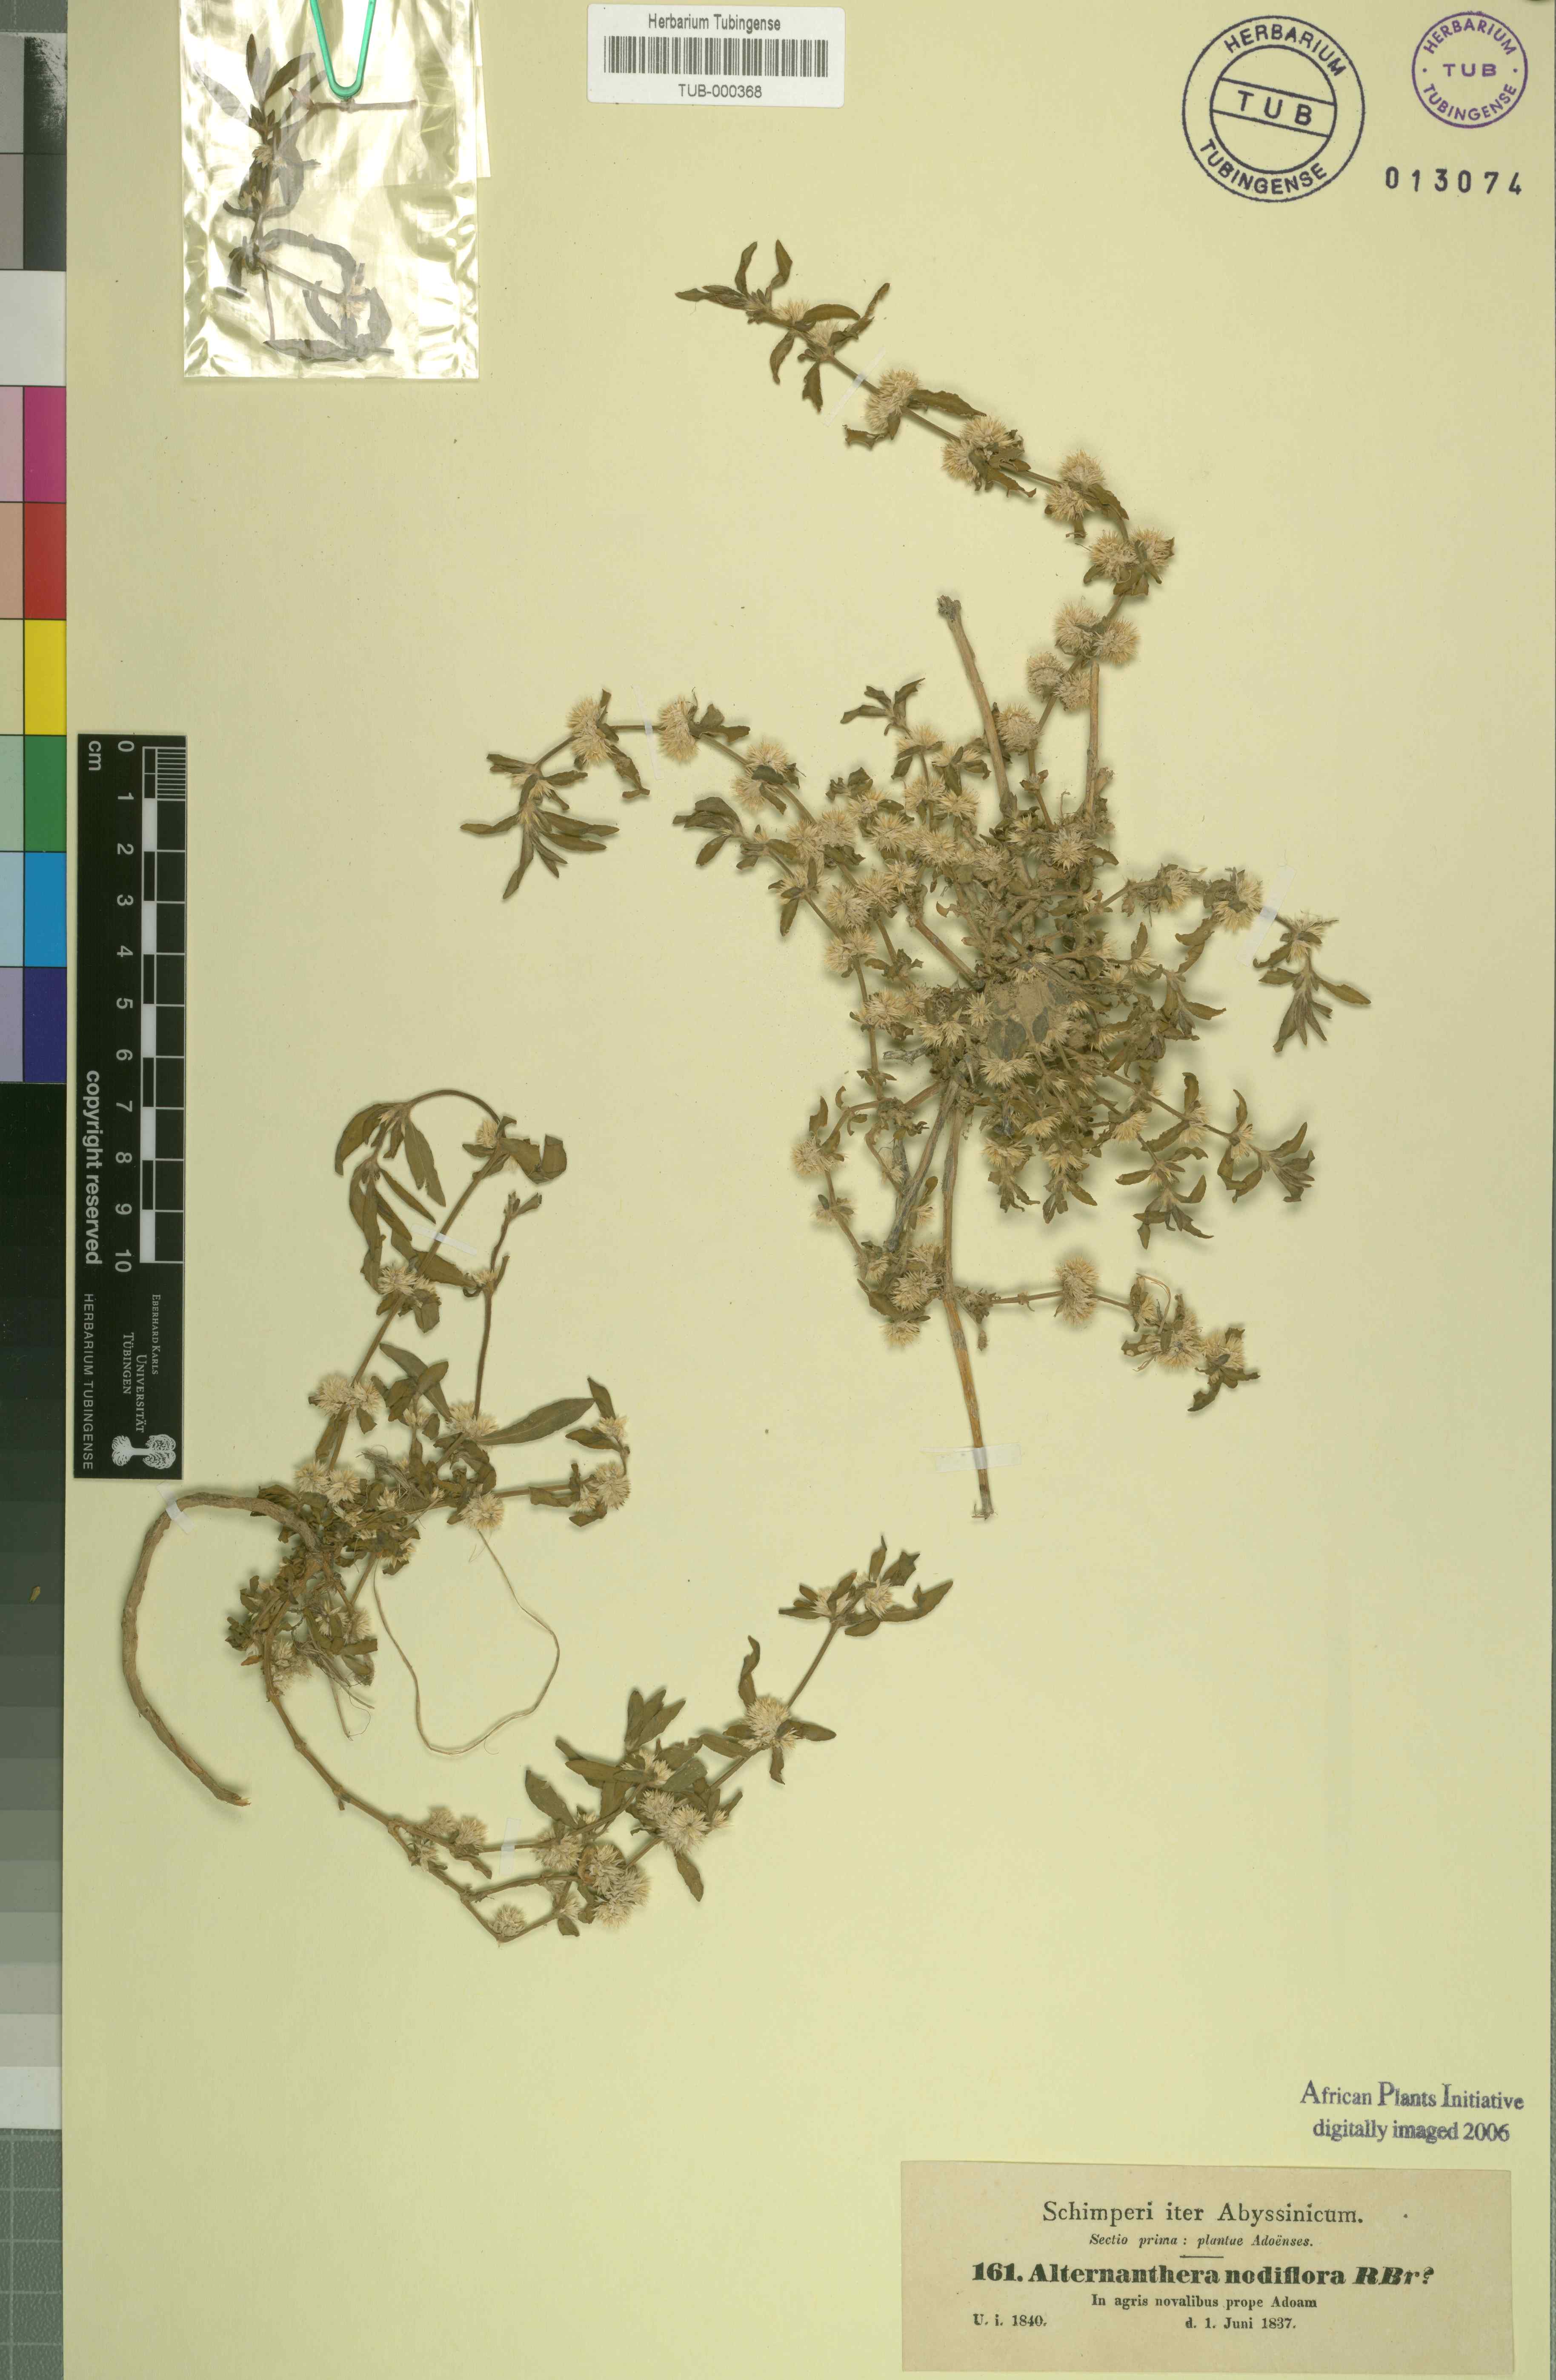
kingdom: Plantae
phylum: Tracheophyta
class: Magnoliopsida
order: Caryophyllales
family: Amaranthaceae
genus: Alternanthera
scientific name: Alternanthera sessilis
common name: Sessile joyweed
